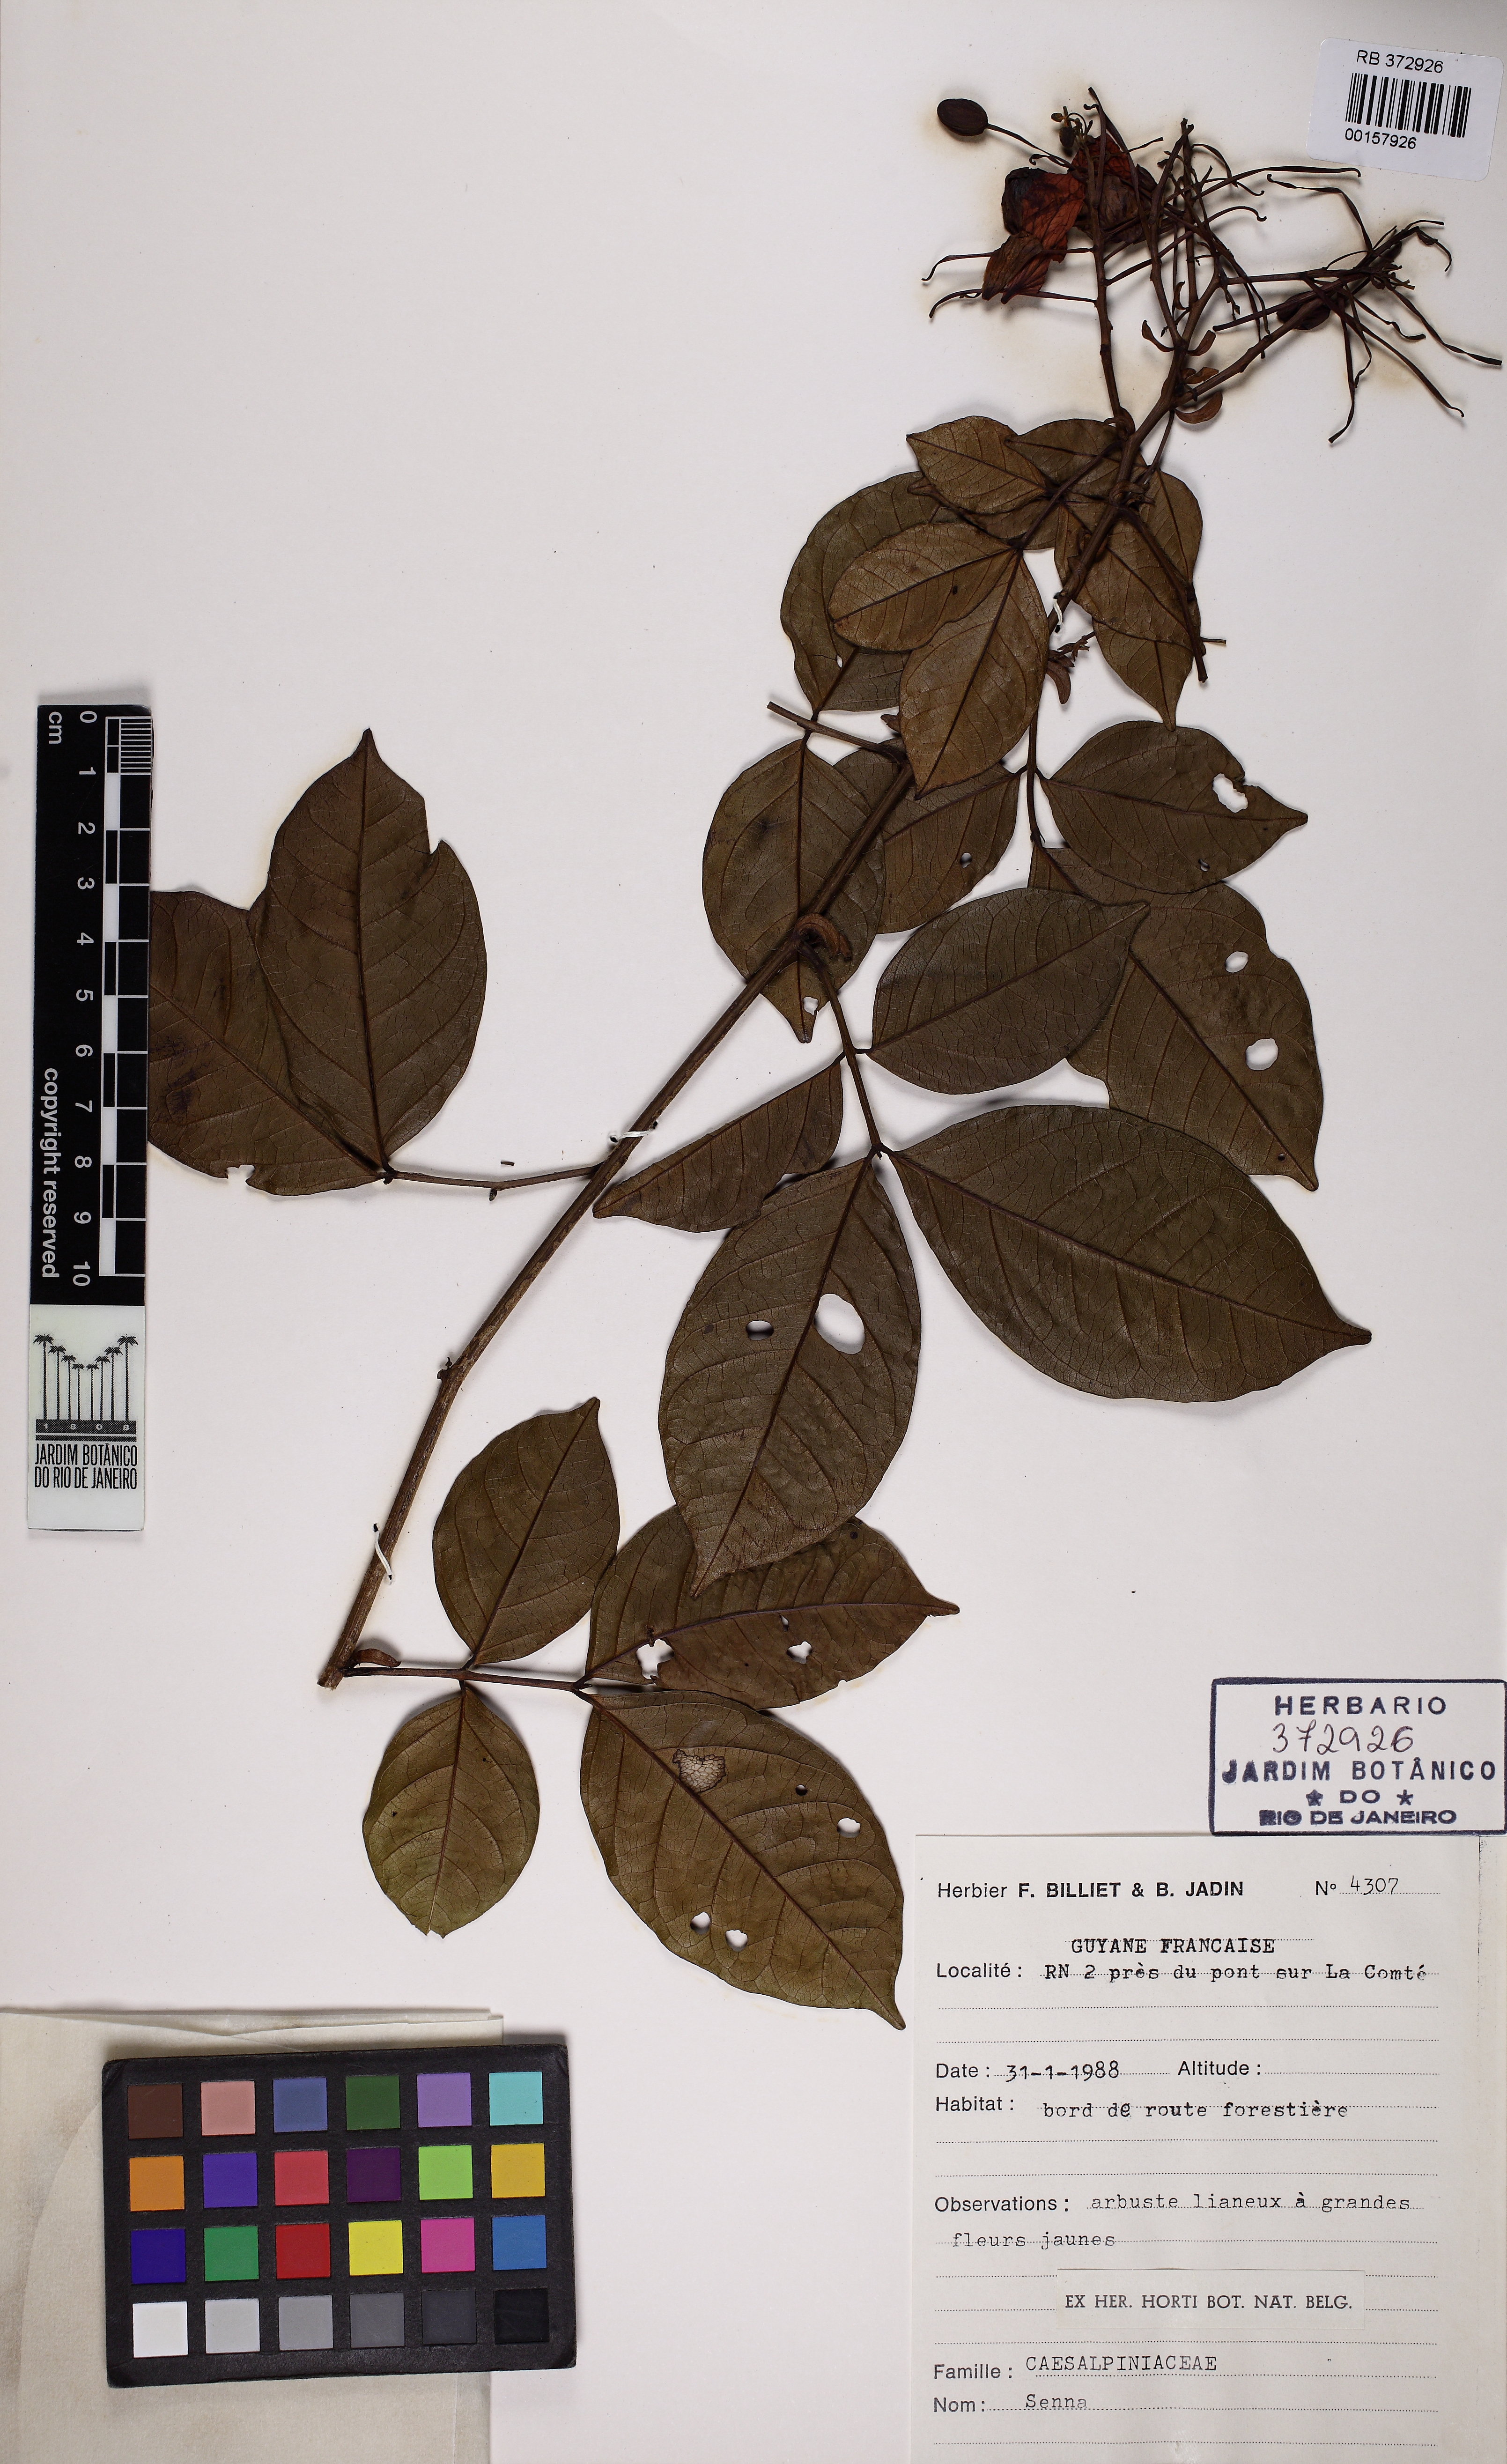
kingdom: Plantae
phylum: Tracheophyta
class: Magnoliopsida
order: Fabales
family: Fabaceae
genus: Senna
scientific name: Senna hayesiana
